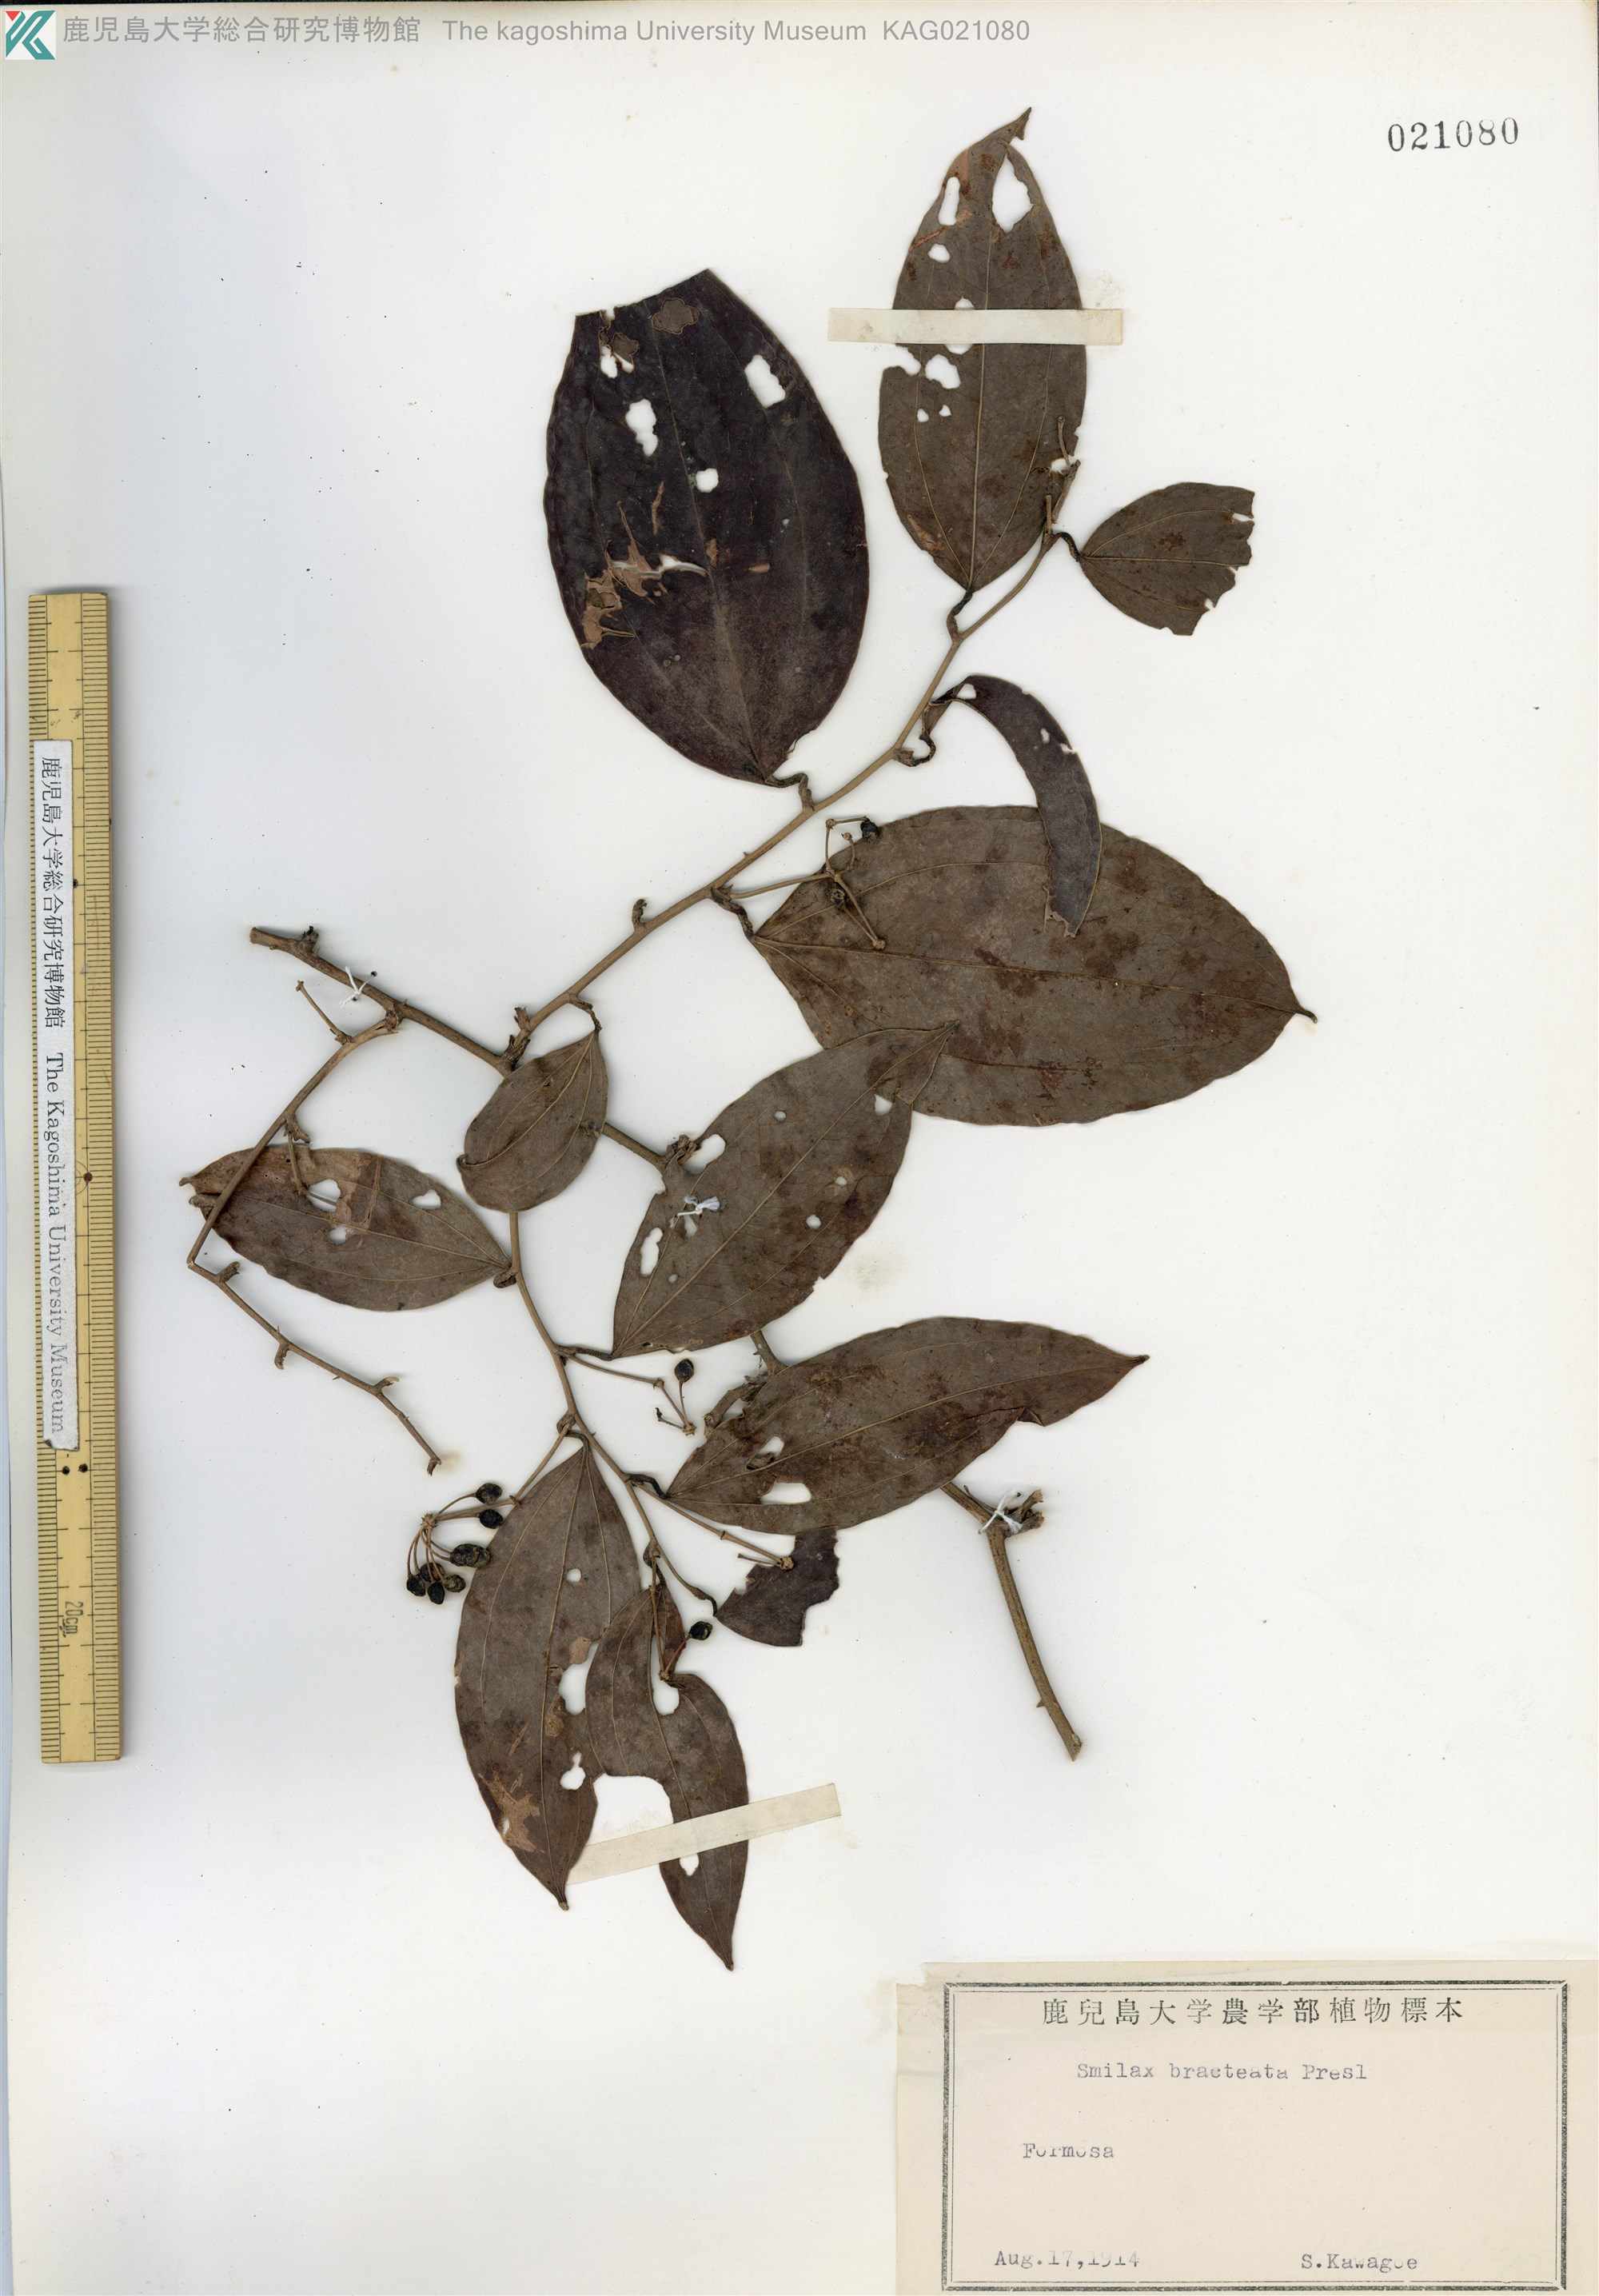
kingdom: Plantae
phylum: Tracheophyta
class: Liliopsida
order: Liliales
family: Smilacaceae
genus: Smilax
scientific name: Smilax bracteata
